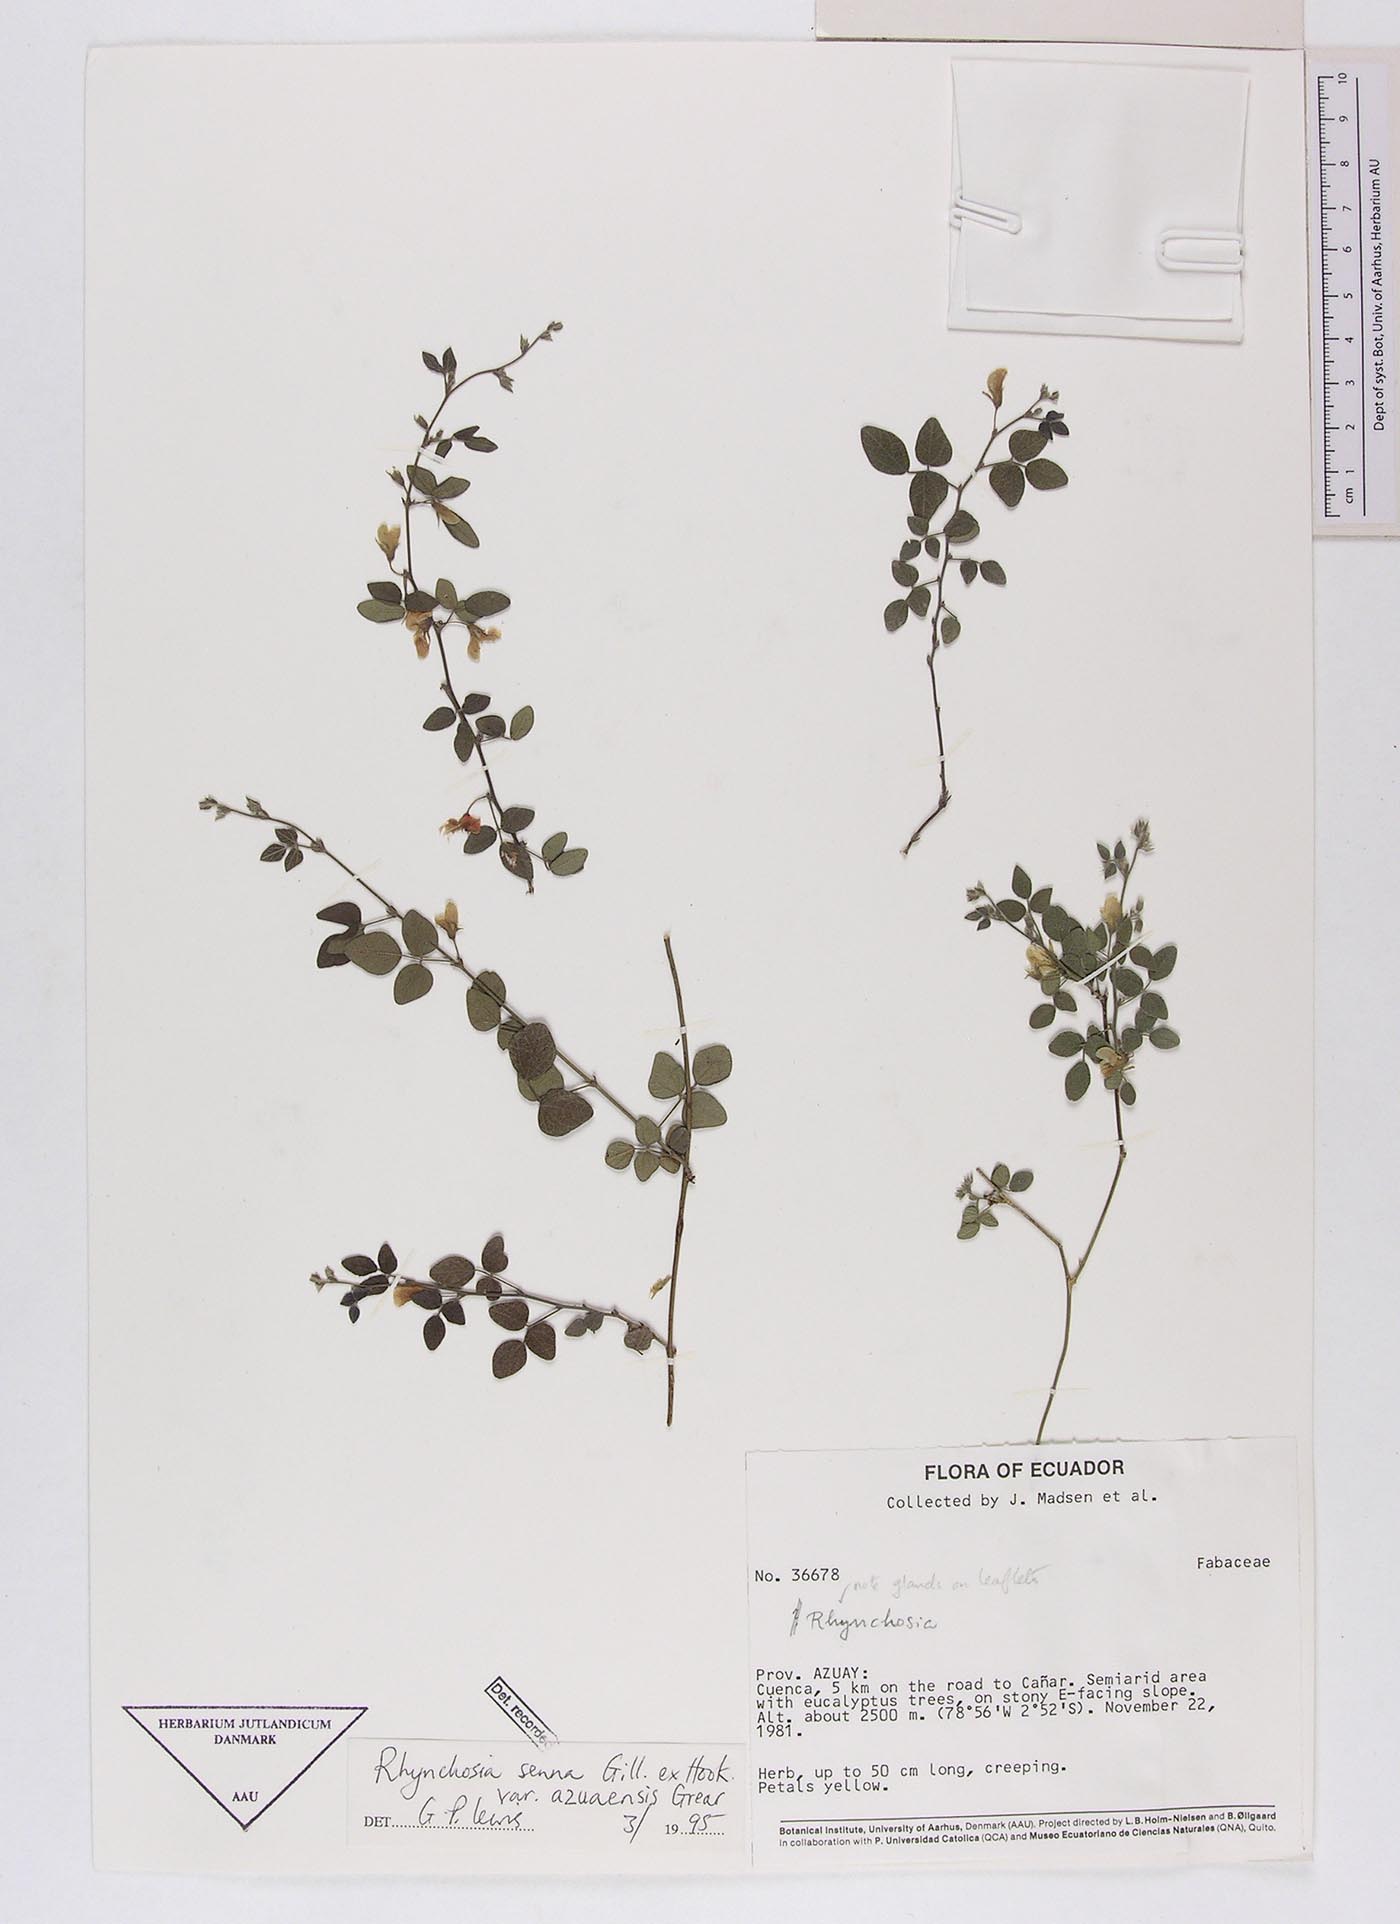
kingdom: Plantae
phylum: Tracheophyta
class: Magnoliopsida
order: Fabales
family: Fabaceae
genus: Rhynchosia
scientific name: Rhynchosia senna
